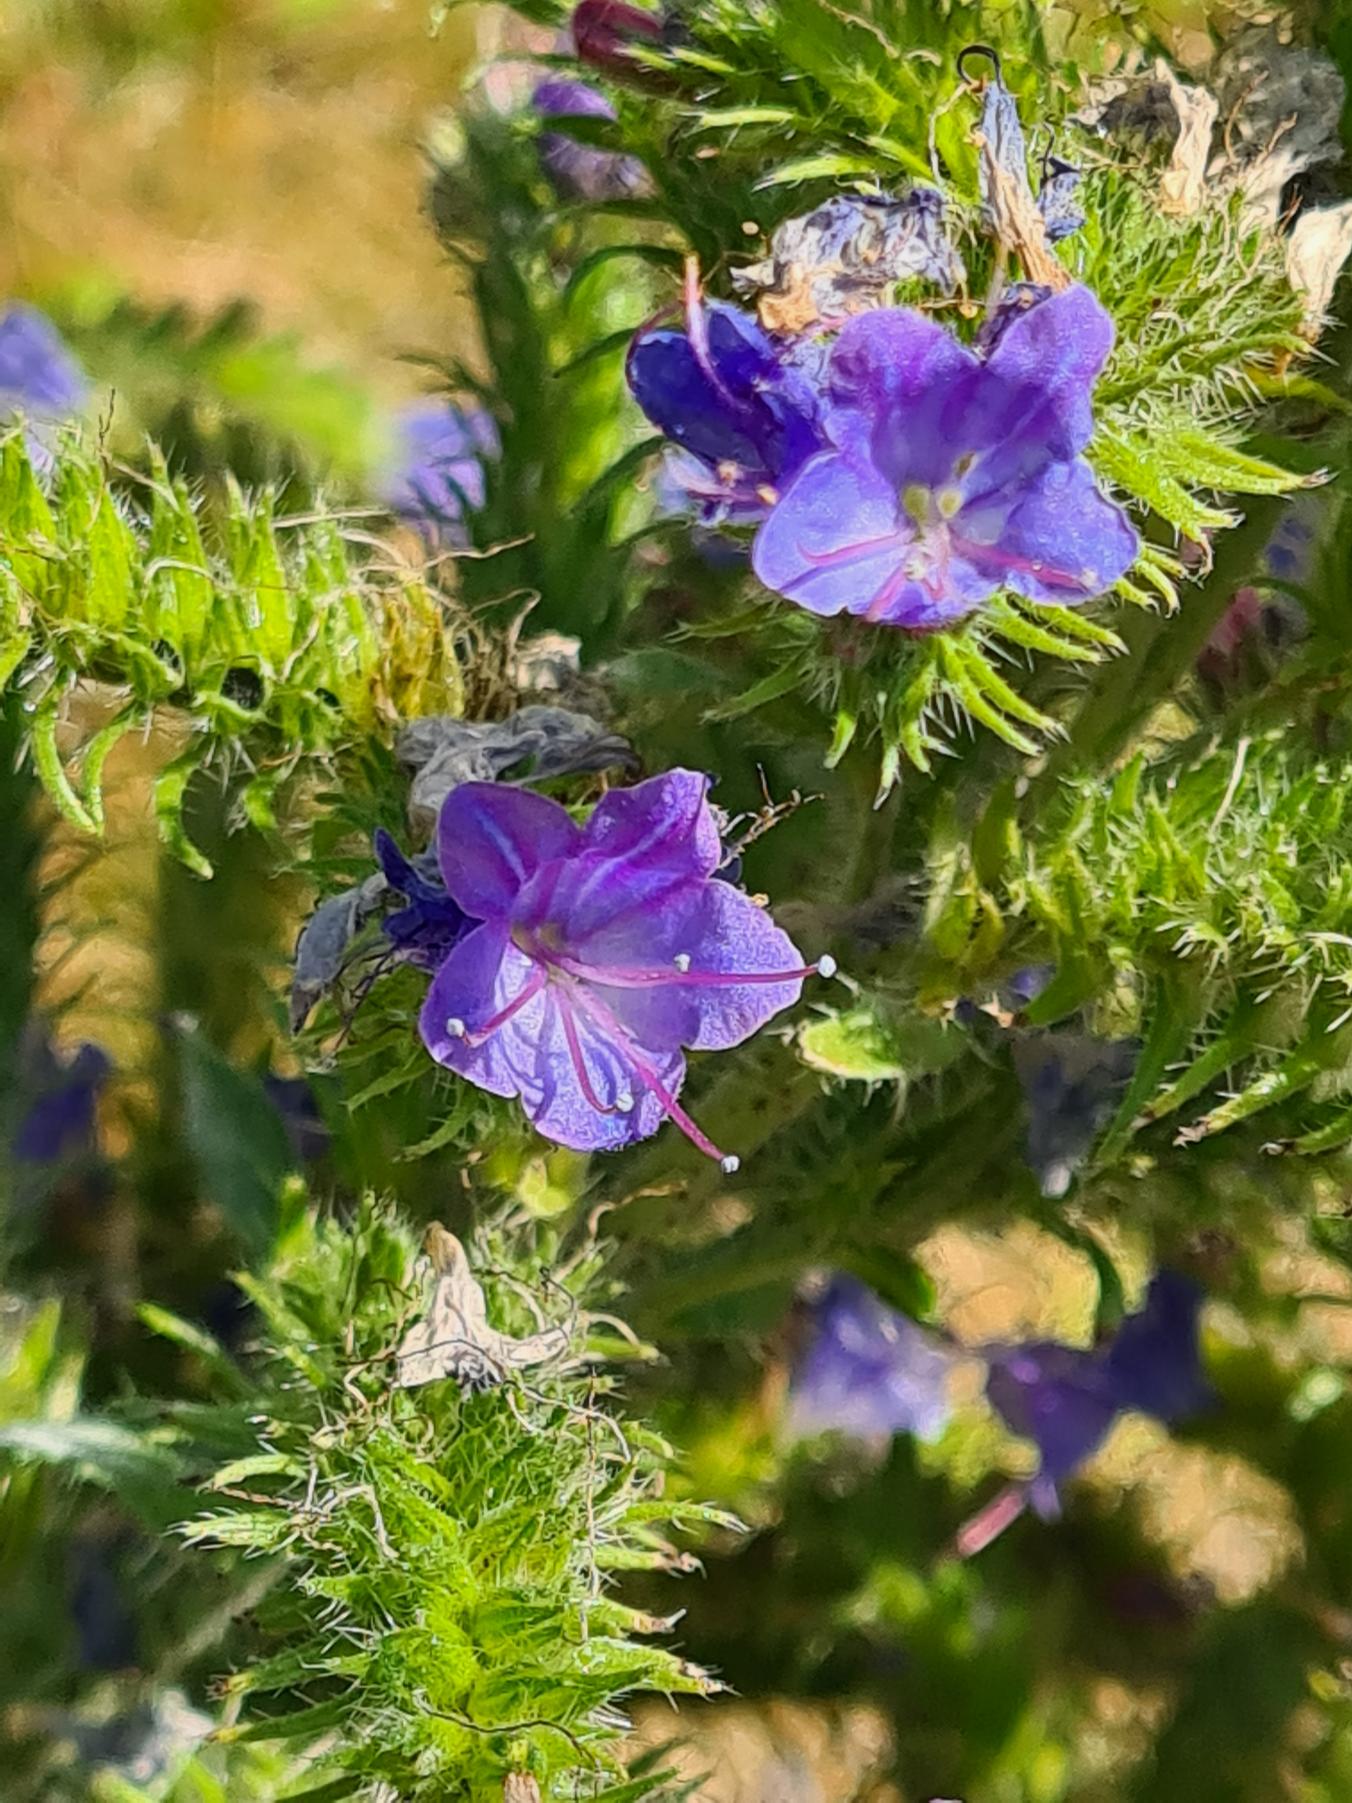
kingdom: Plantae
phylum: Tracheophyta
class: Magnoliopsida
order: Boraginales
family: Boraginaceae
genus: Echium
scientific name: Echium vulgare
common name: Slangehoved
